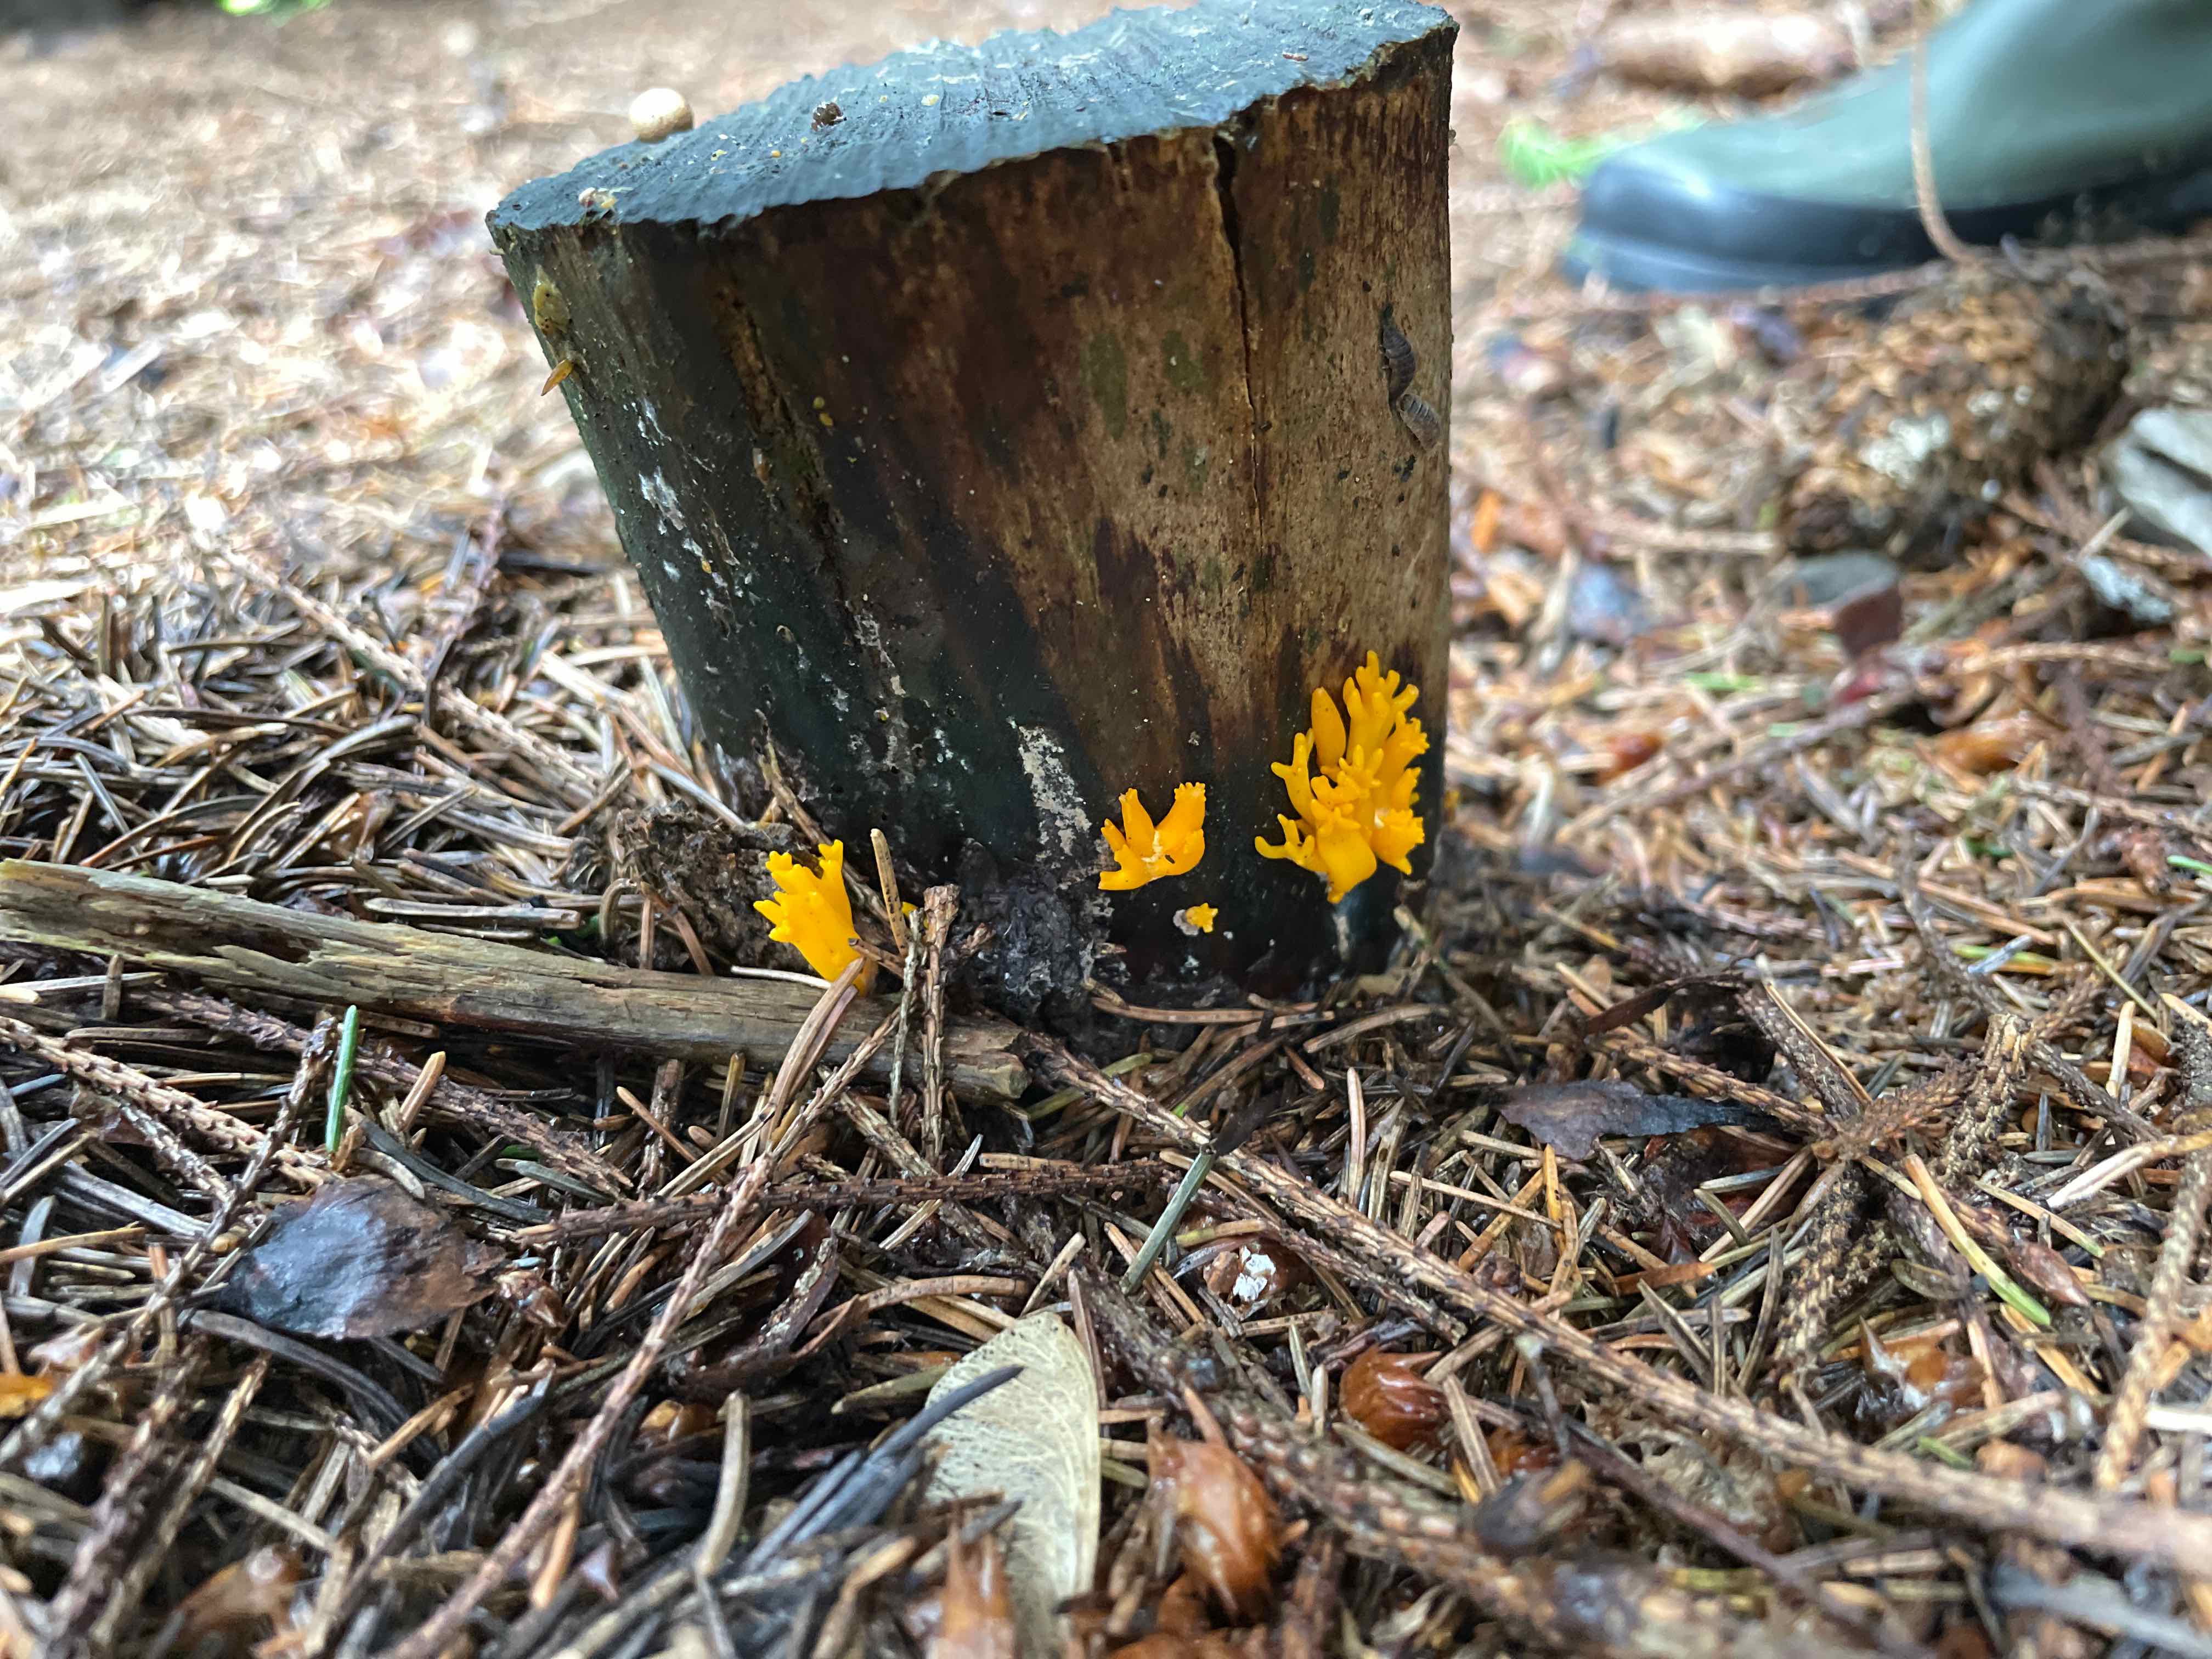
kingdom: Fungi
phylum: Basidiomycota
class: Dacrymycetes
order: Dacrymycetales
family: Dacrymycetaceae
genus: Calocera
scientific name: Calocera viscosa
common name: almindelig guldgaffel
